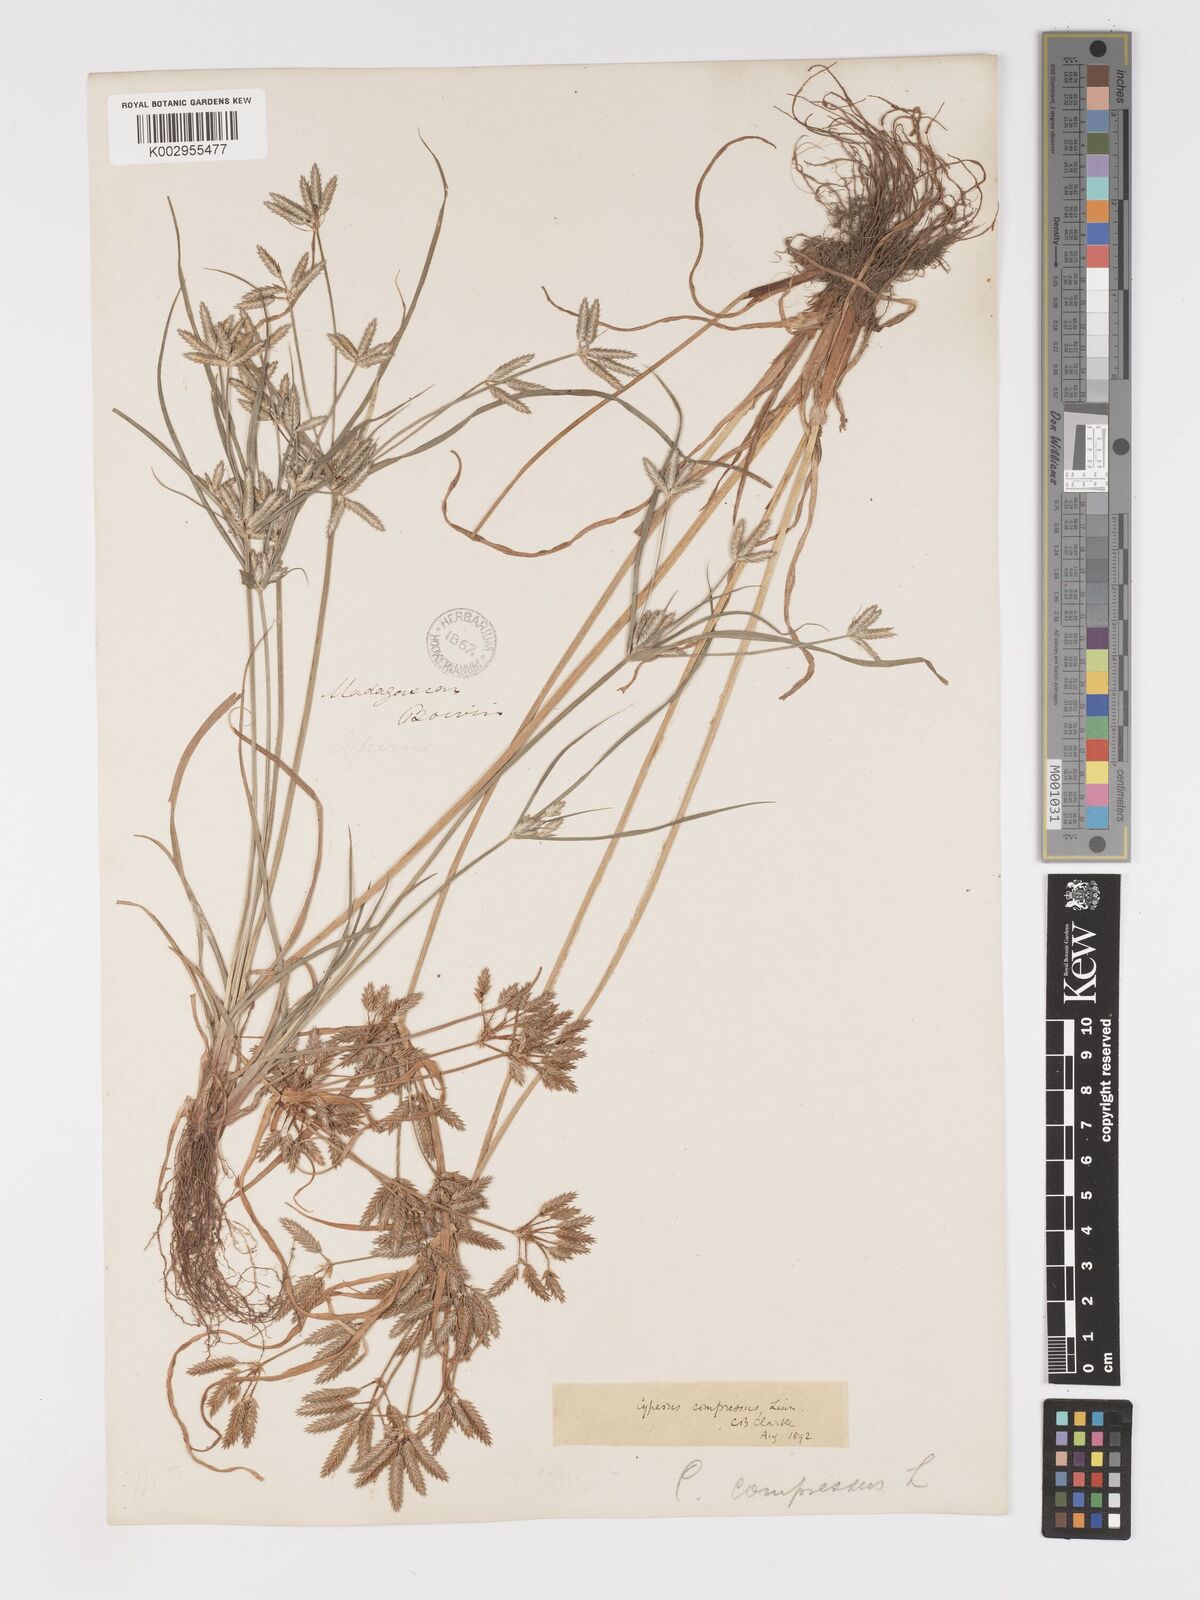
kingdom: Plantae
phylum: Tracheophyta
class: Liliopsida
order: Poales
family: Cyperaceae
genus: Cyperus
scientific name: Cyperus compressus
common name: Poorland flatsedge
